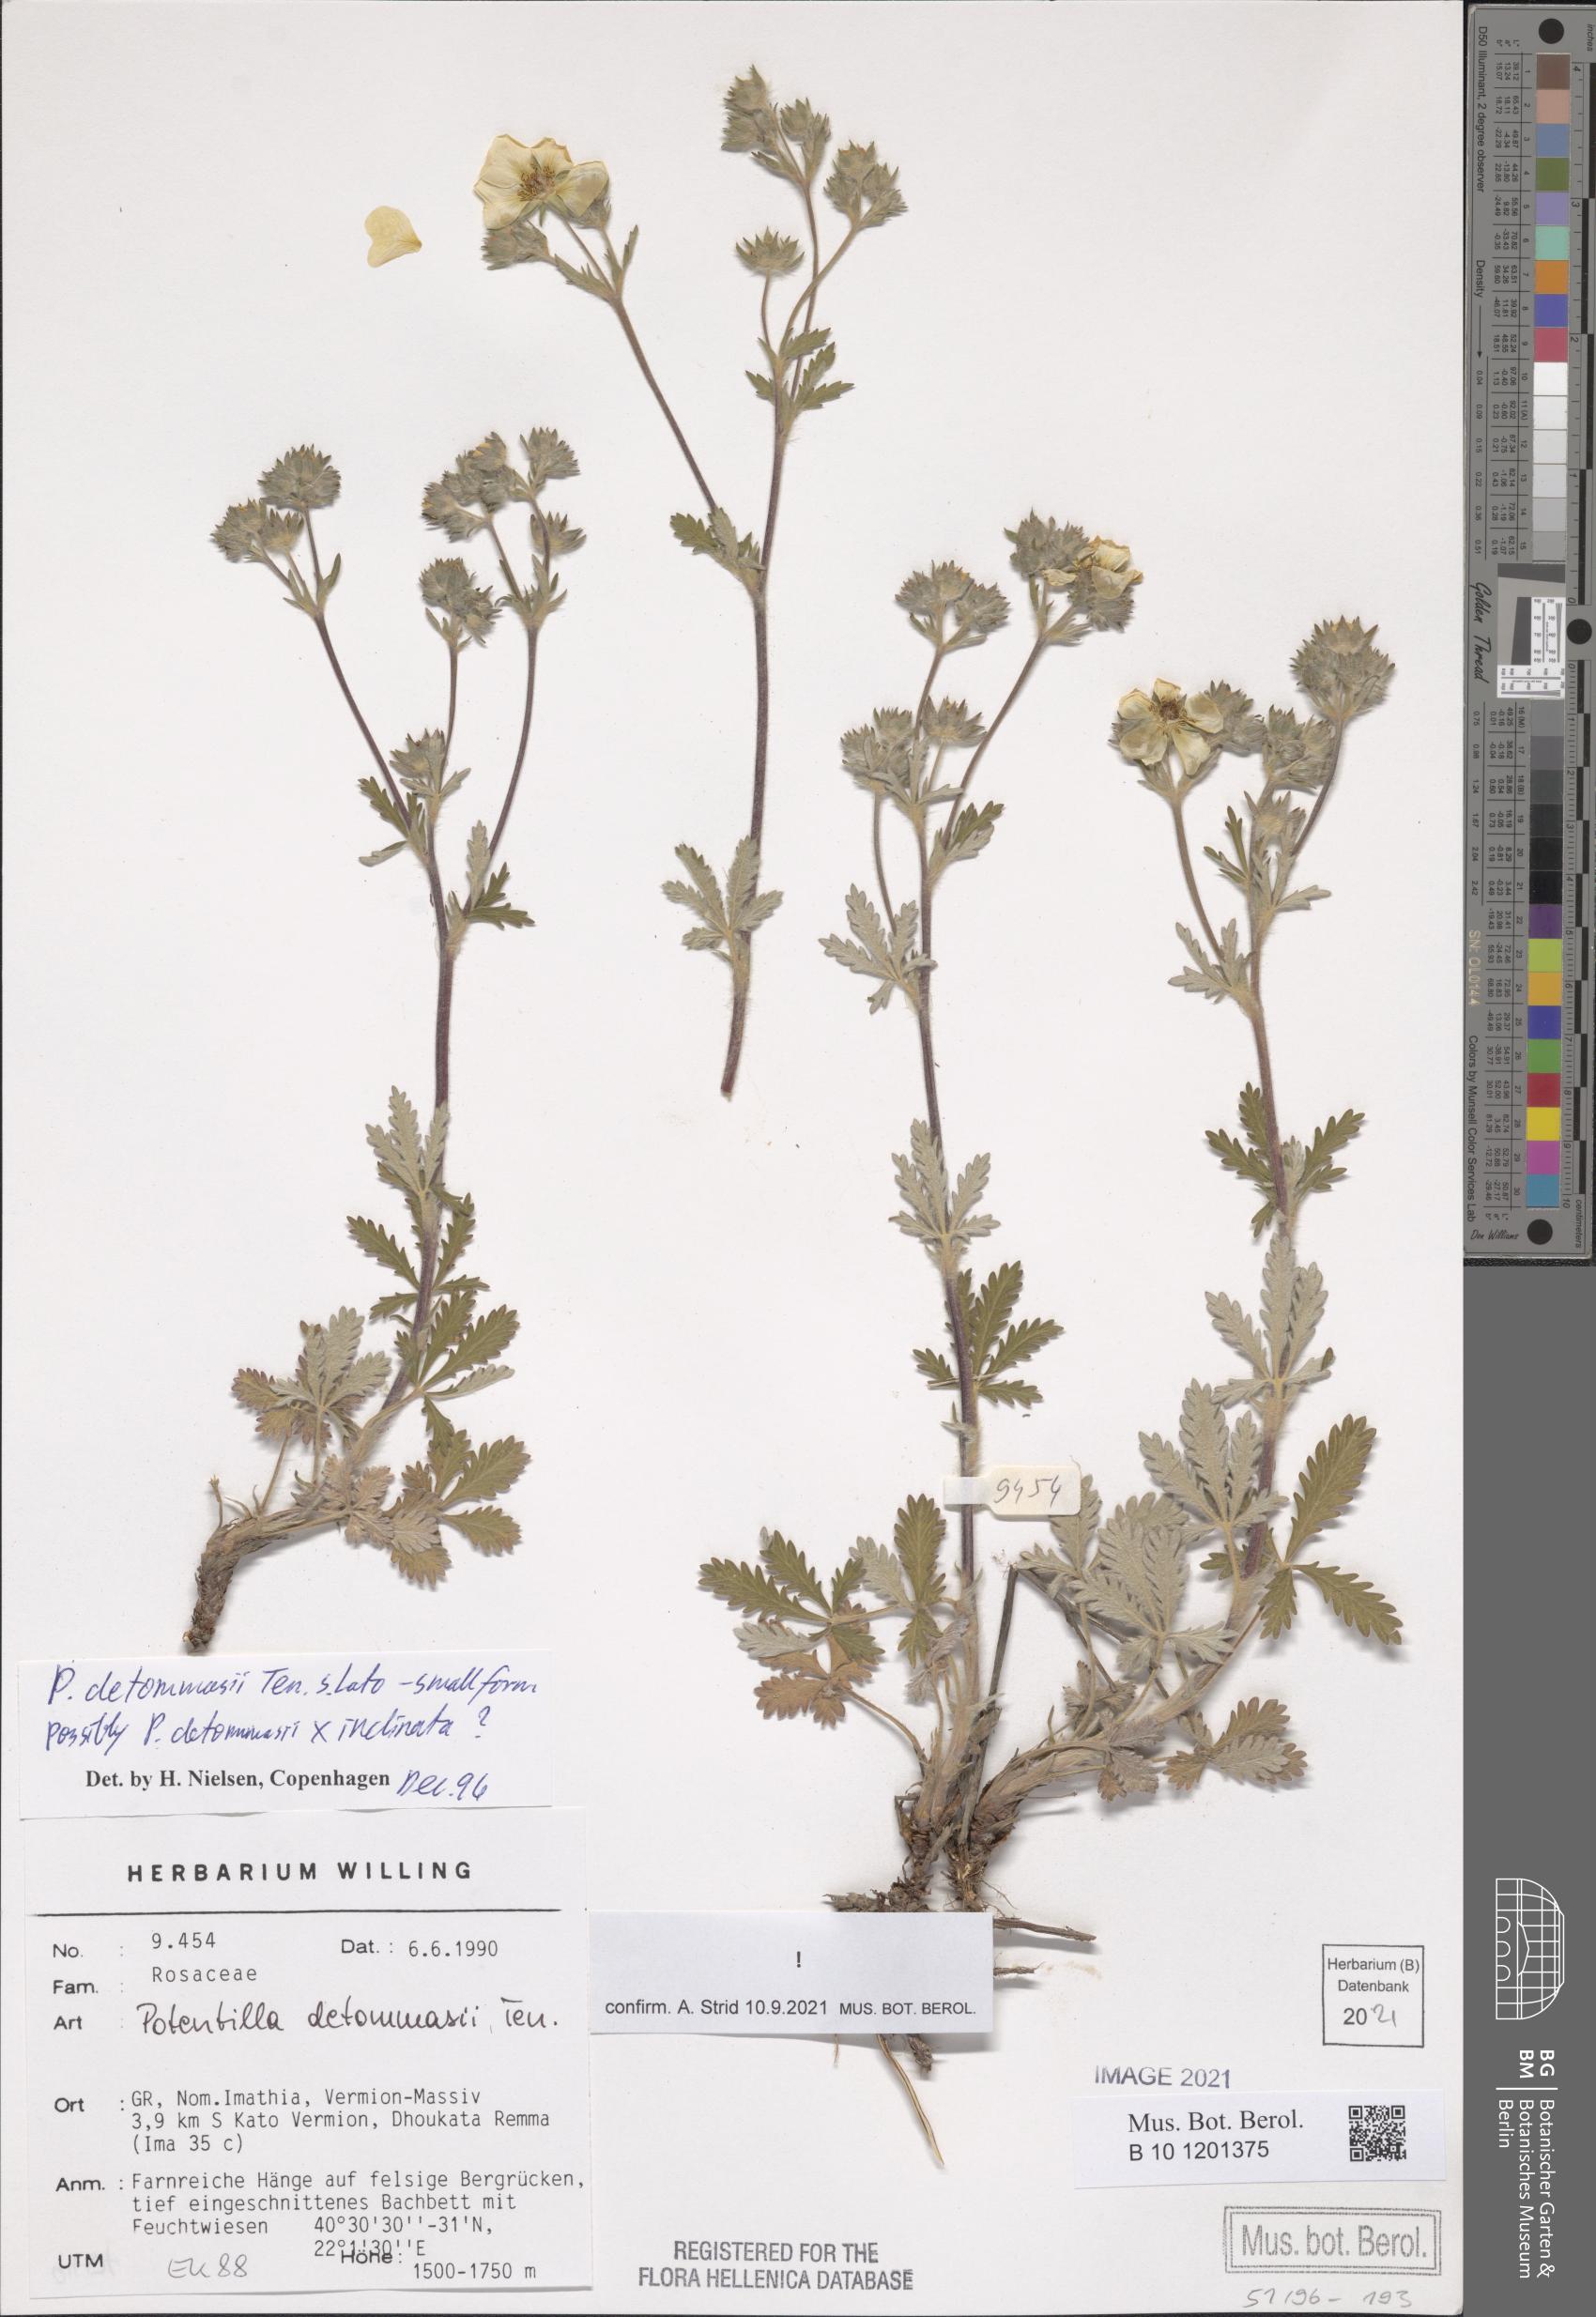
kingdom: Plantae
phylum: Tracheophyta
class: Magnoliopsida
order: Rosales
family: Rosaceae
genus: Potentilla
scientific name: Potentilla detommasii
